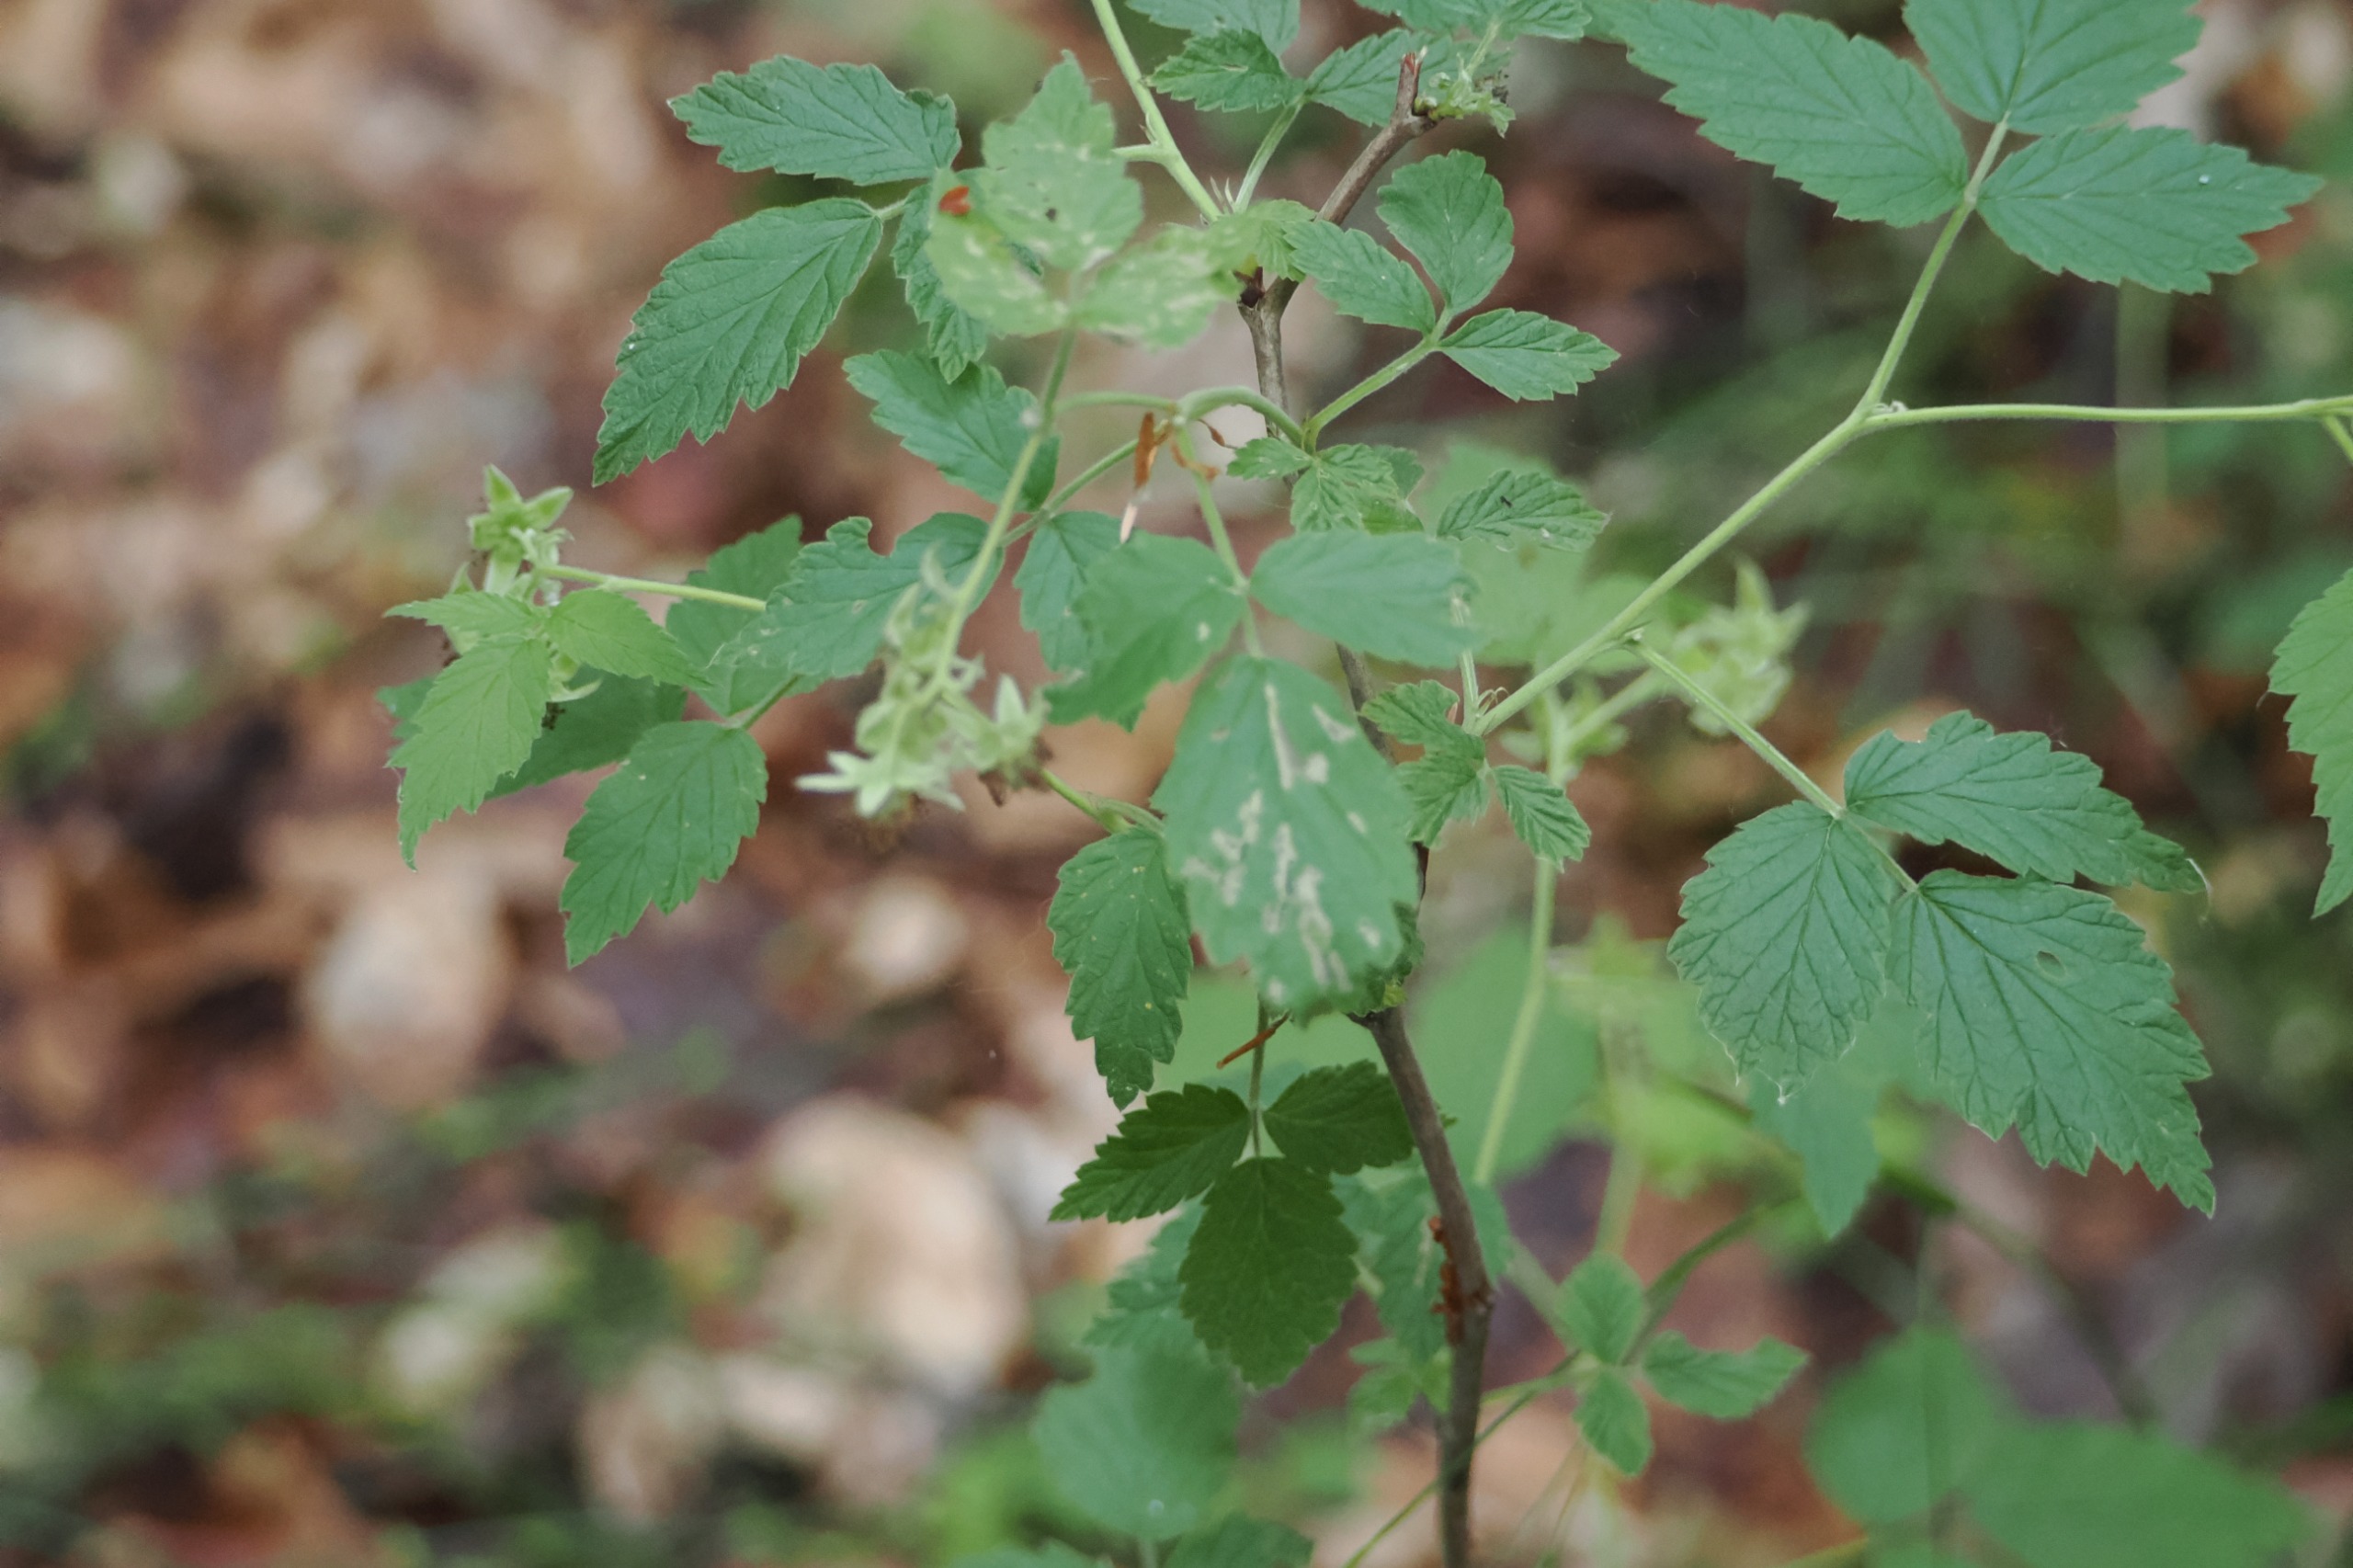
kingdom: Plantae
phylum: Tracheophyta
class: Magnoliopsida
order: Rosales
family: Rosaceae
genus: Rubus
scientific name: Rubus idaeus
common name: Hindbær
